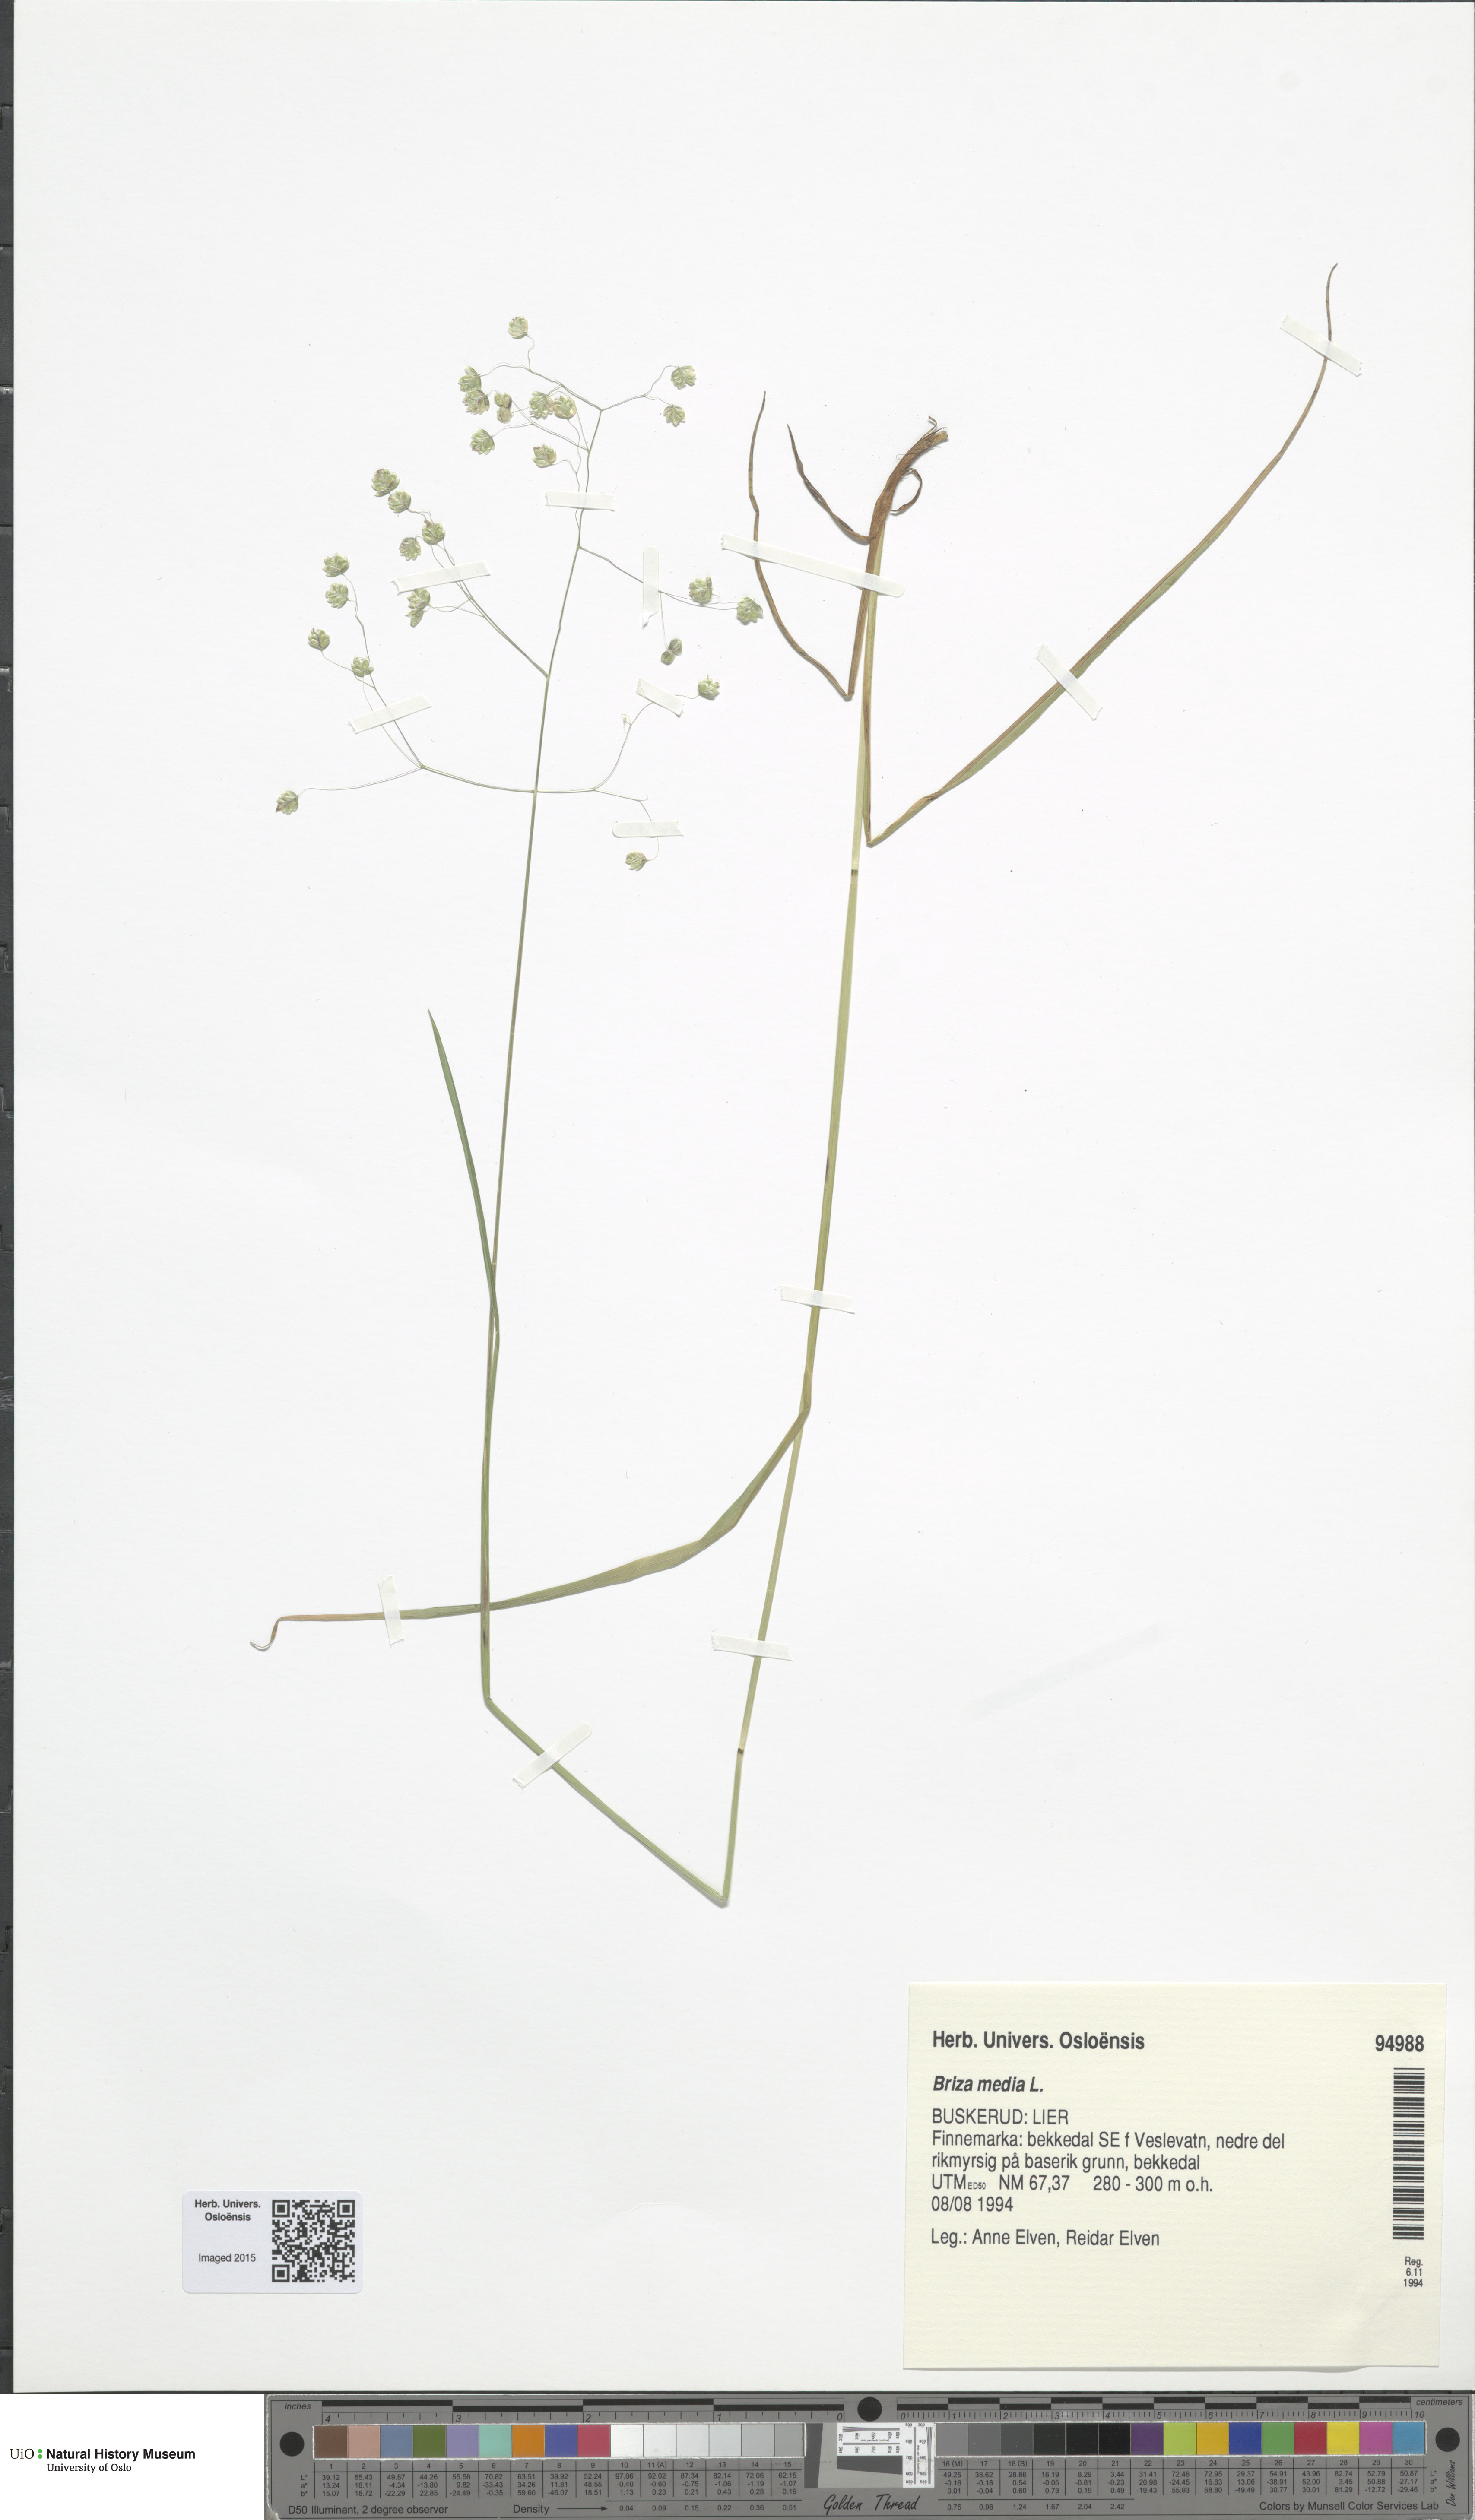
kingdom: Plantae
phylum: Tracheophyta
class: Liliopsida
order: Poales
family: Poaceae
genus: Briza
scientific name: Briza media
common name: Quaking grass
